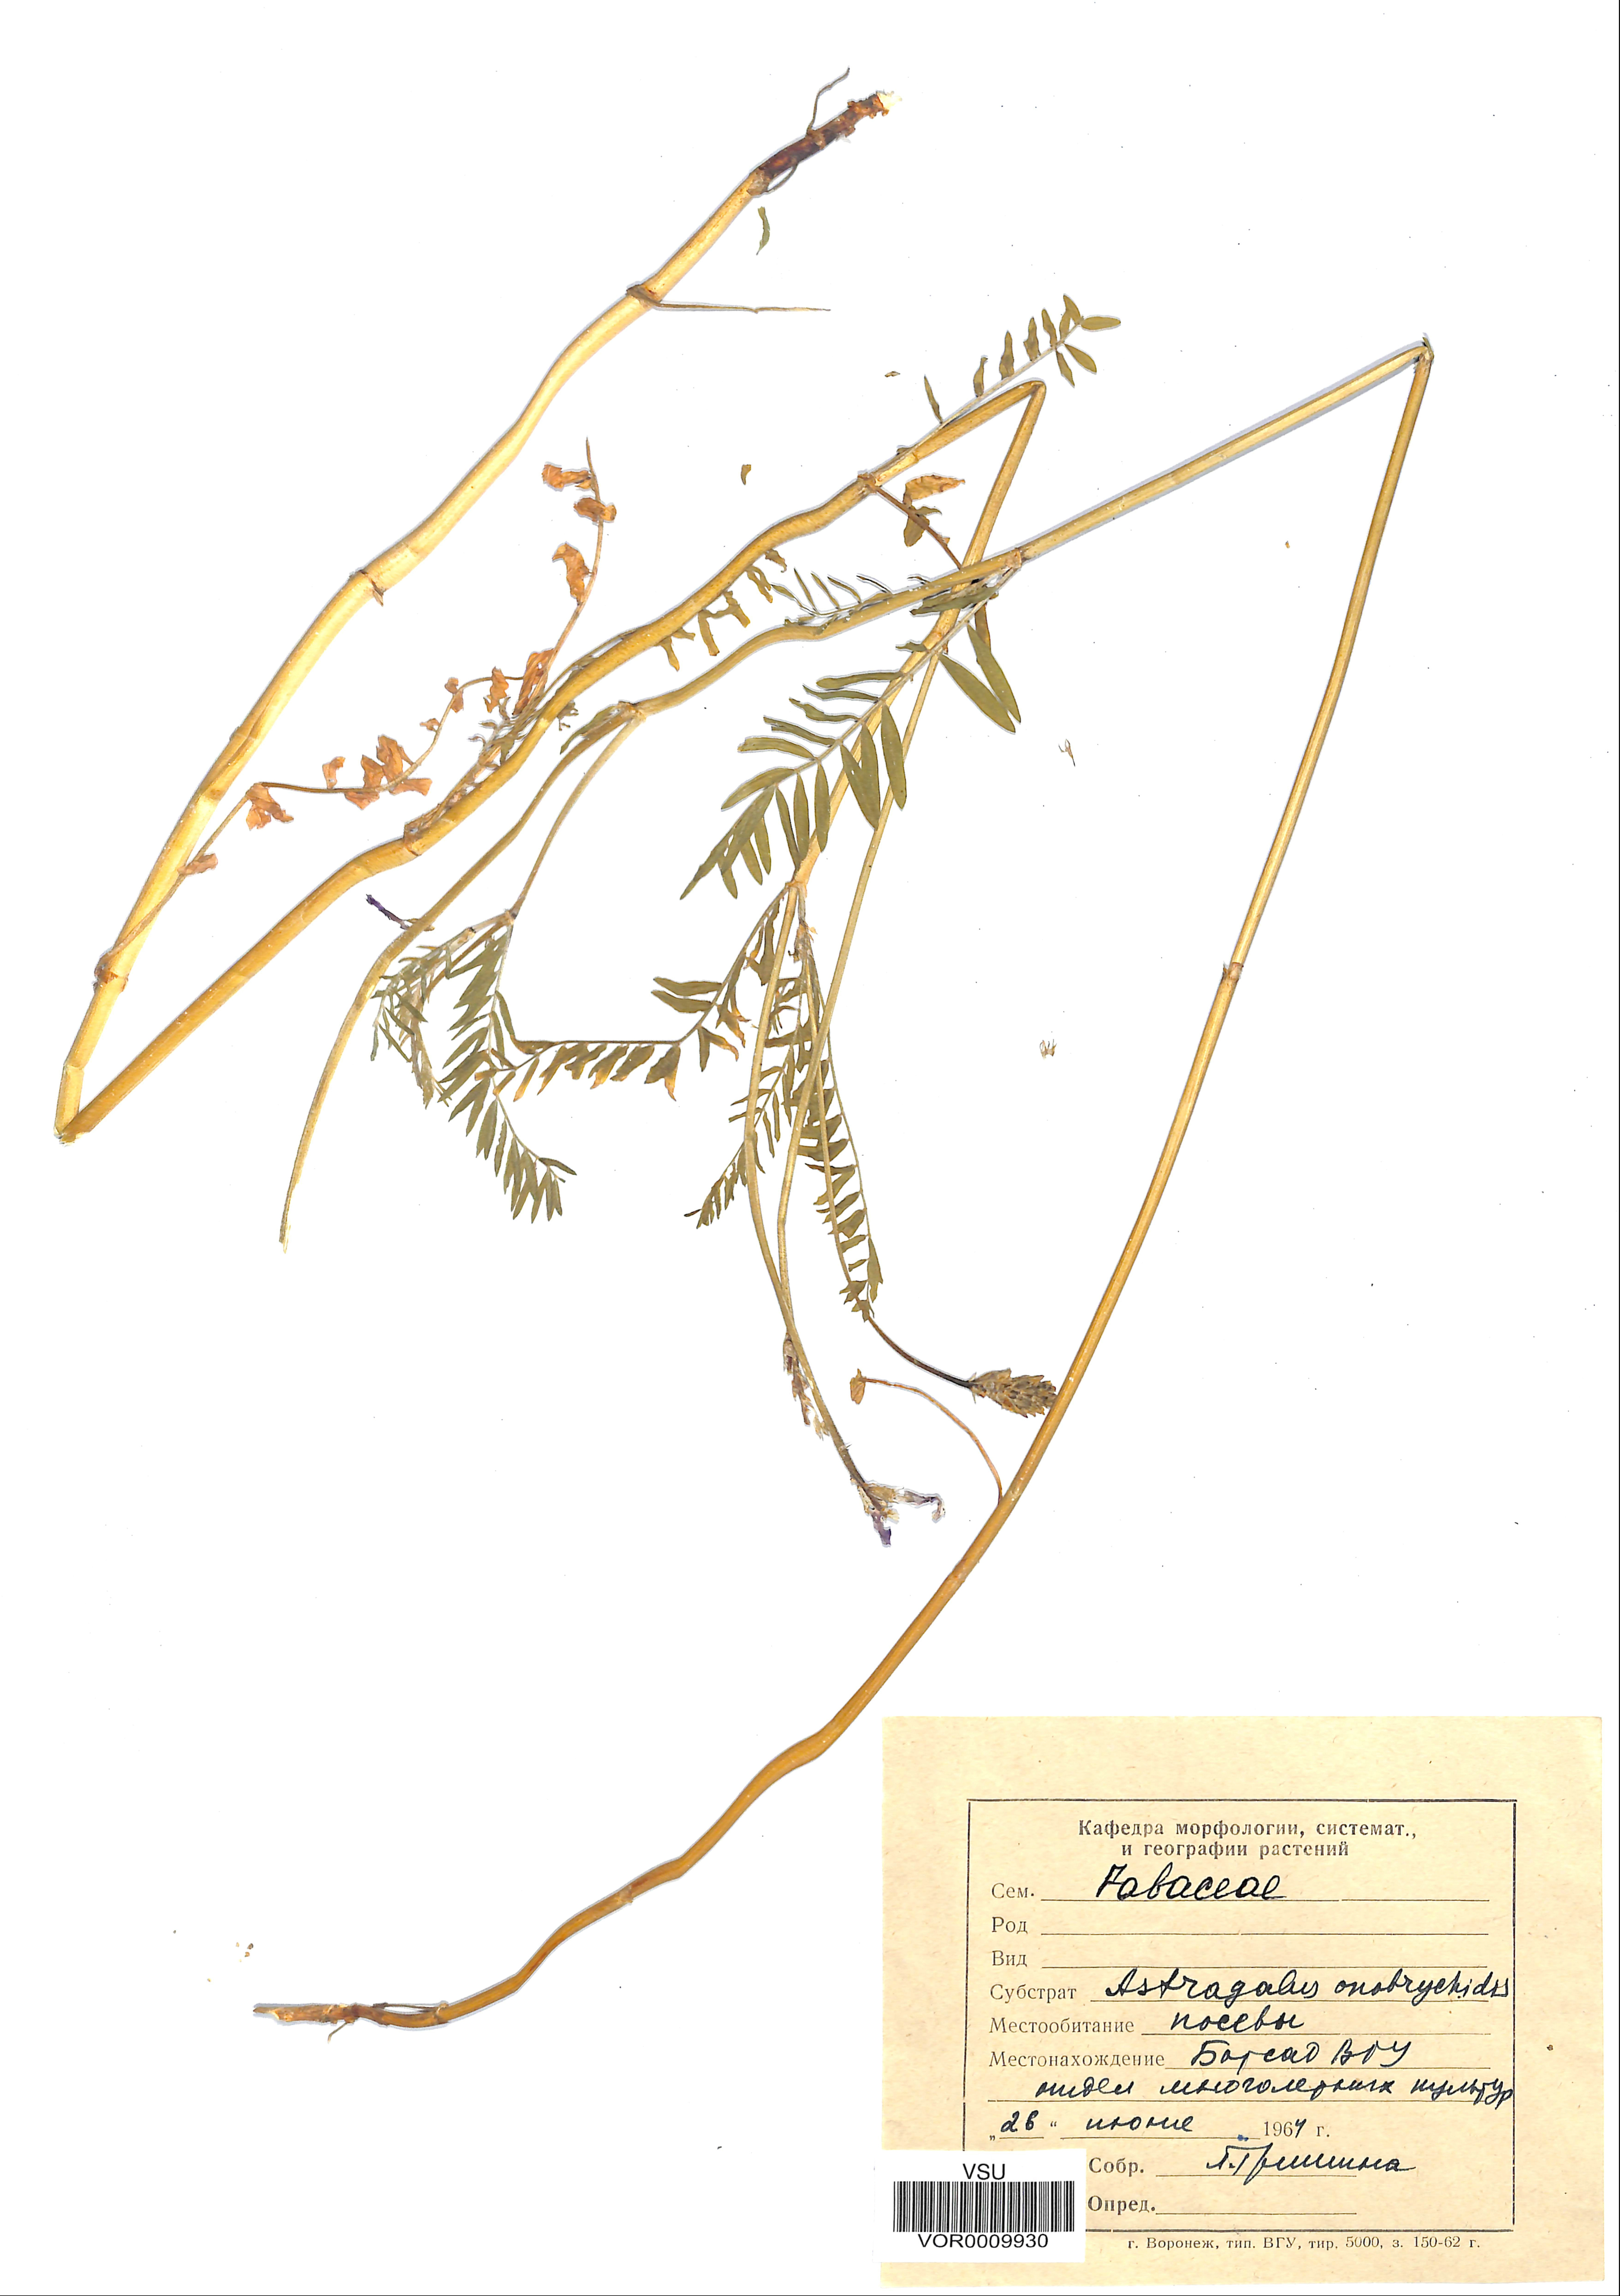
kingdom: Plantae
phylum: Tracheophyta
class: Magnoliopsida
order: Fabales
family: Fabaceae
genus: Astragalus
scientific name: Astragalus onobrychis
